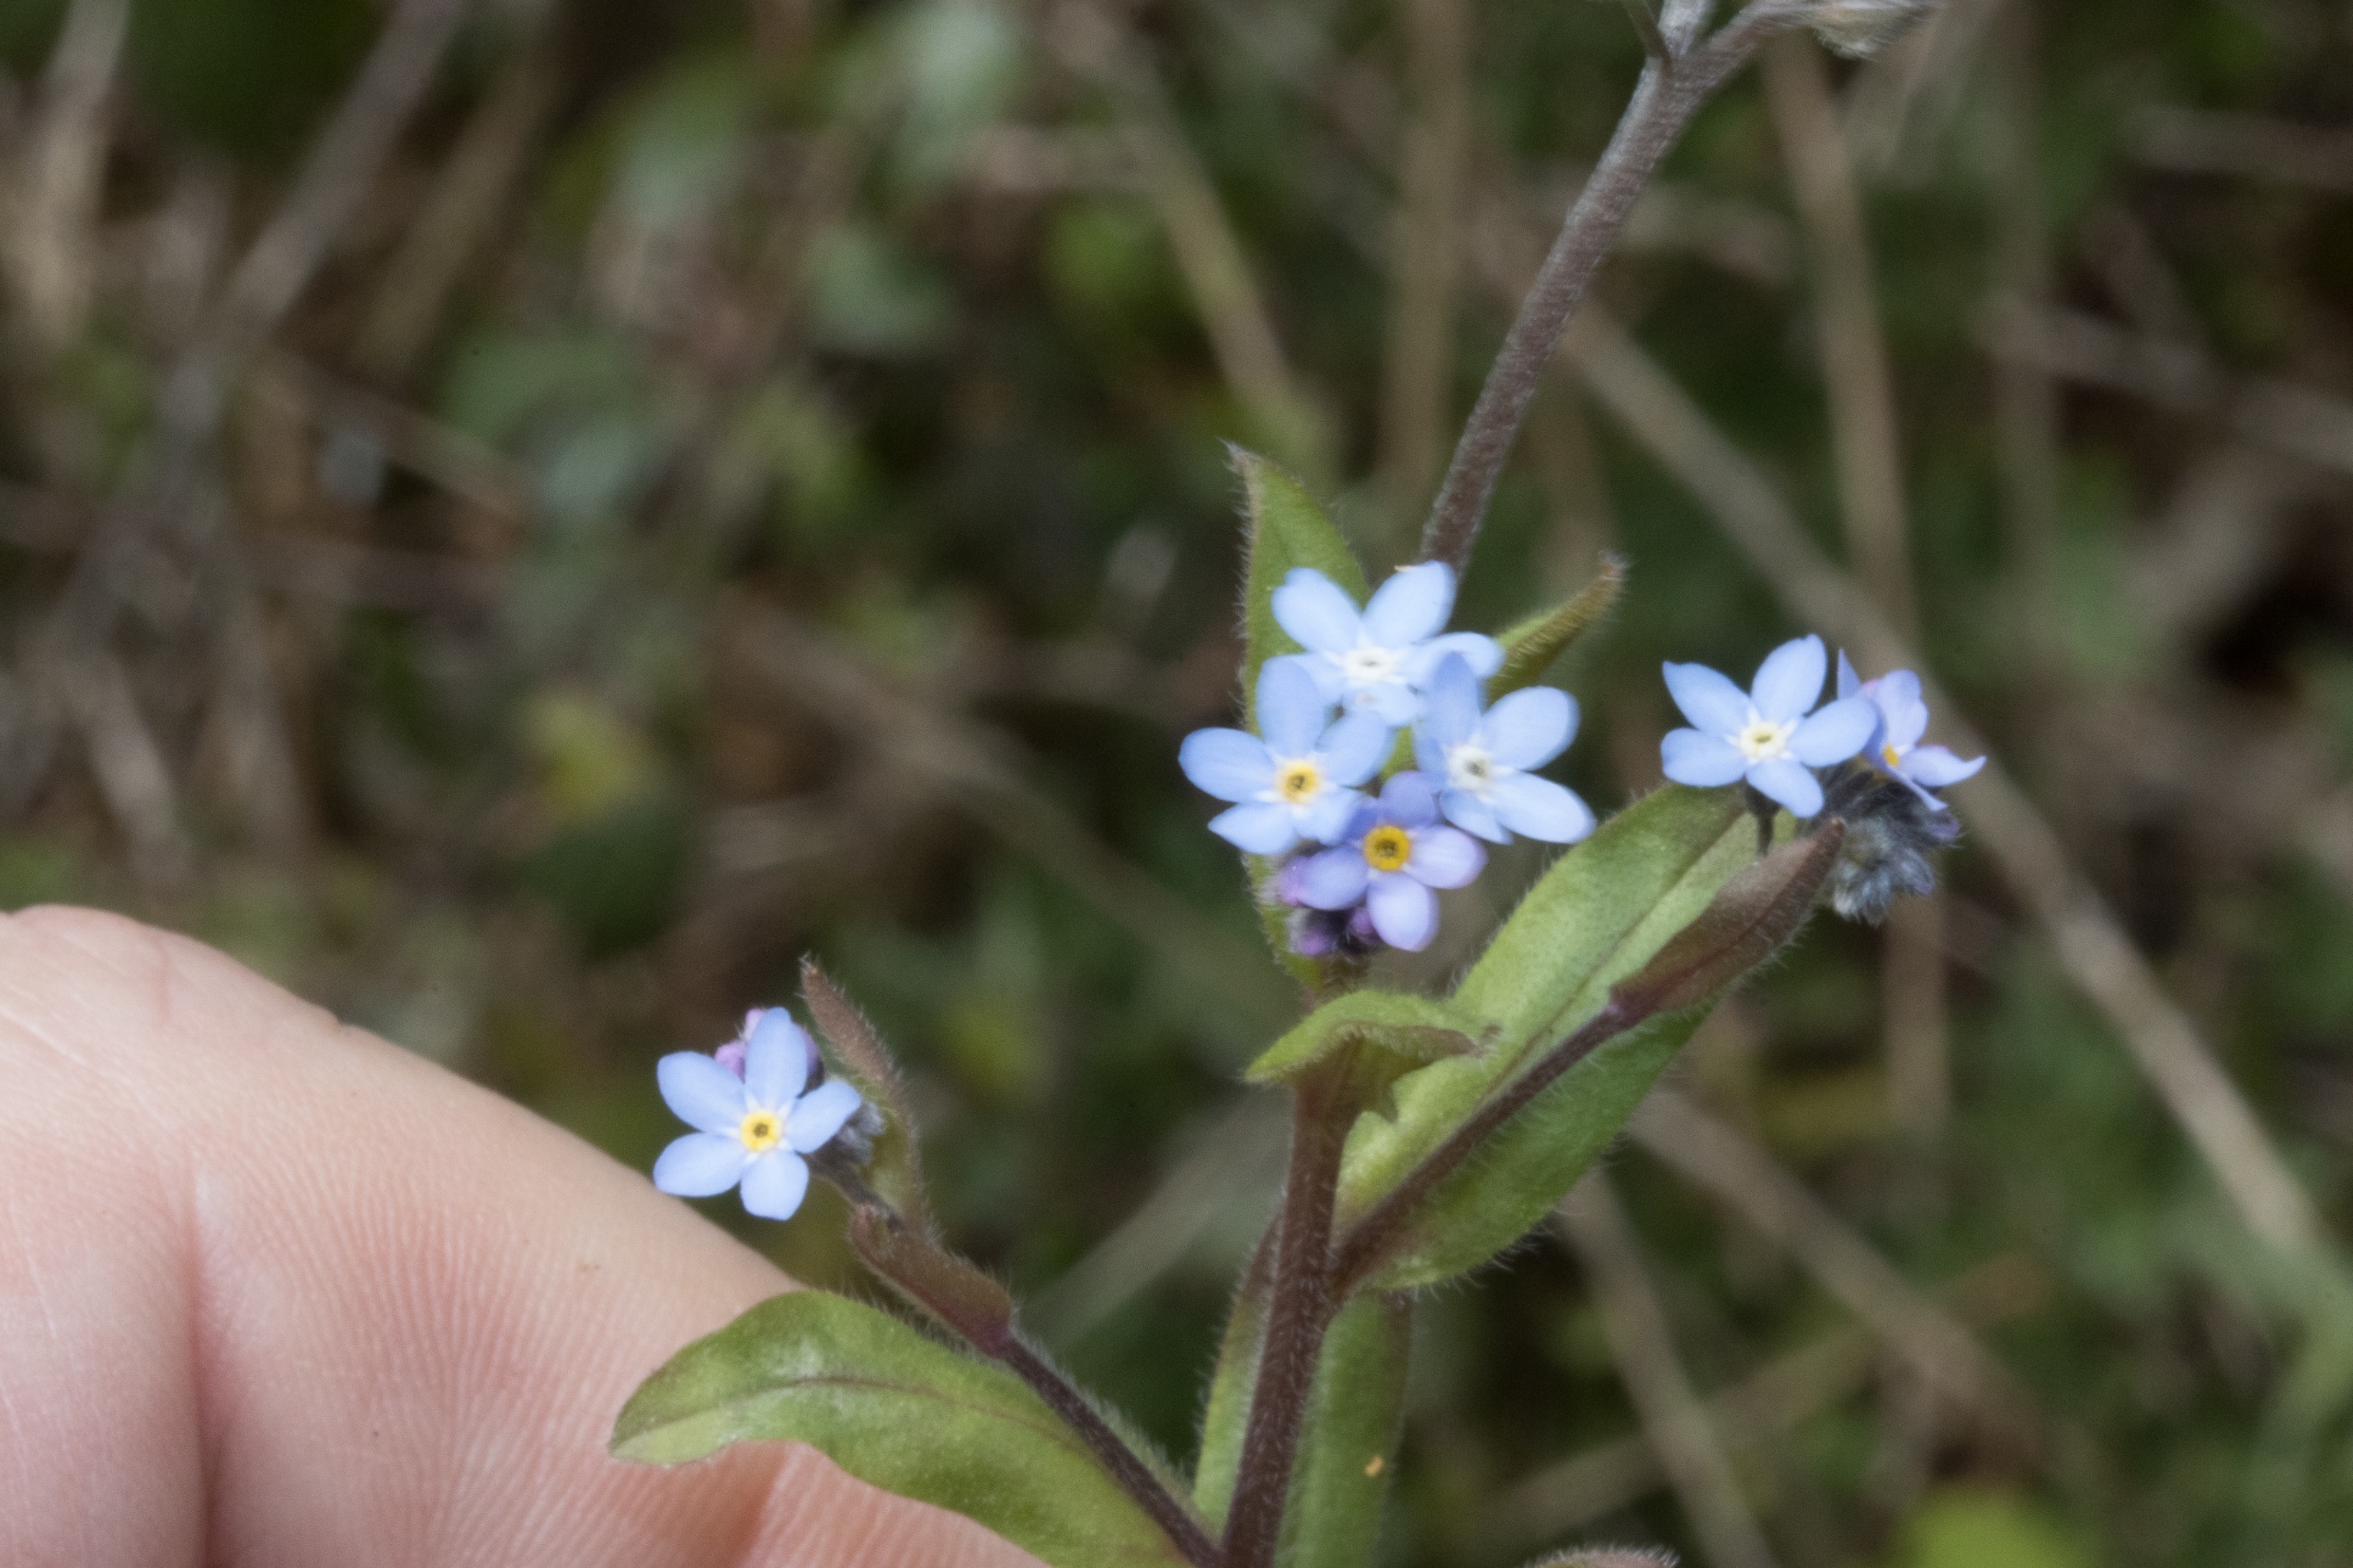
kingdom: Plantae
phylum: Tracheophyta
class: Magnoliopsida
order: Boraginales
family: Boraginaceae
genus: Myosotis
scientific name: Myosotis sylvatica
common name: Skov-forglemmigej
